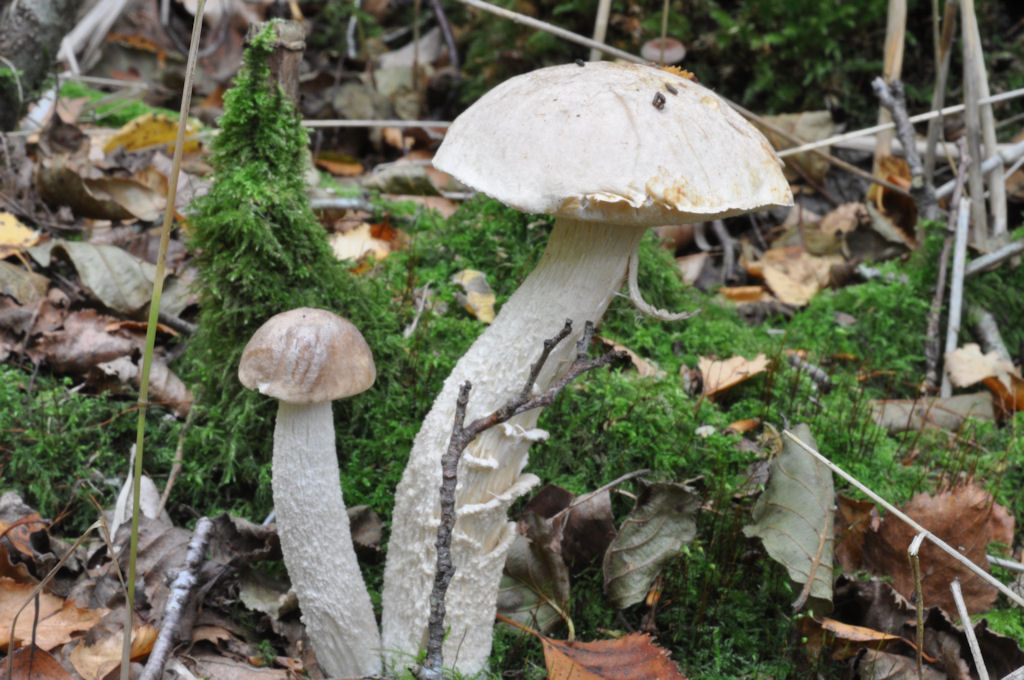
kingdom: Fungi
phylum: Basidiomycota
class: Agaricomycetes
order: Boletales
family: Boletaceae
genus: Leccinum
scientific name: Leccinum schistophilum
